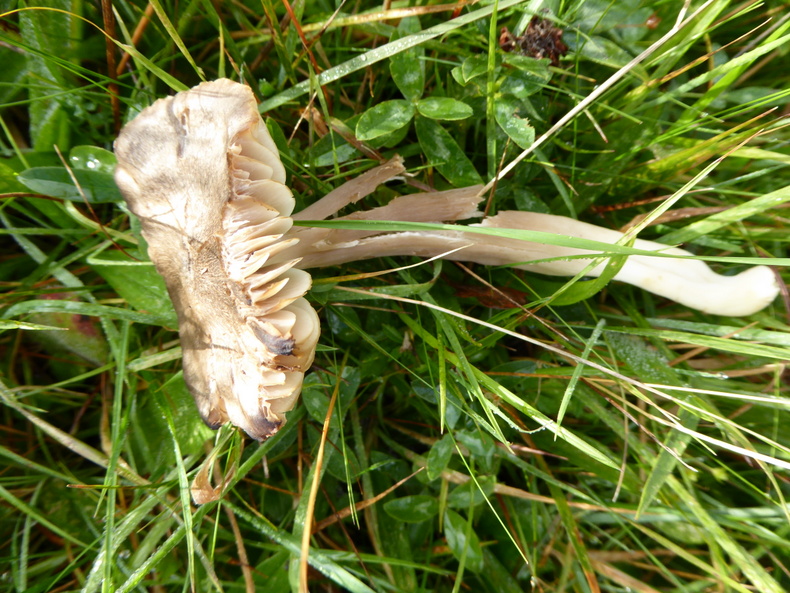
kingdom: Fungi
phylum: Basidiomycota
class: Agaricomycetes
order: Agaricales
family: Hygrophoraceae
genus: Neohygrocybe
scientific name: Neohygrocybe nitrata
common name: stinkende vokshat
